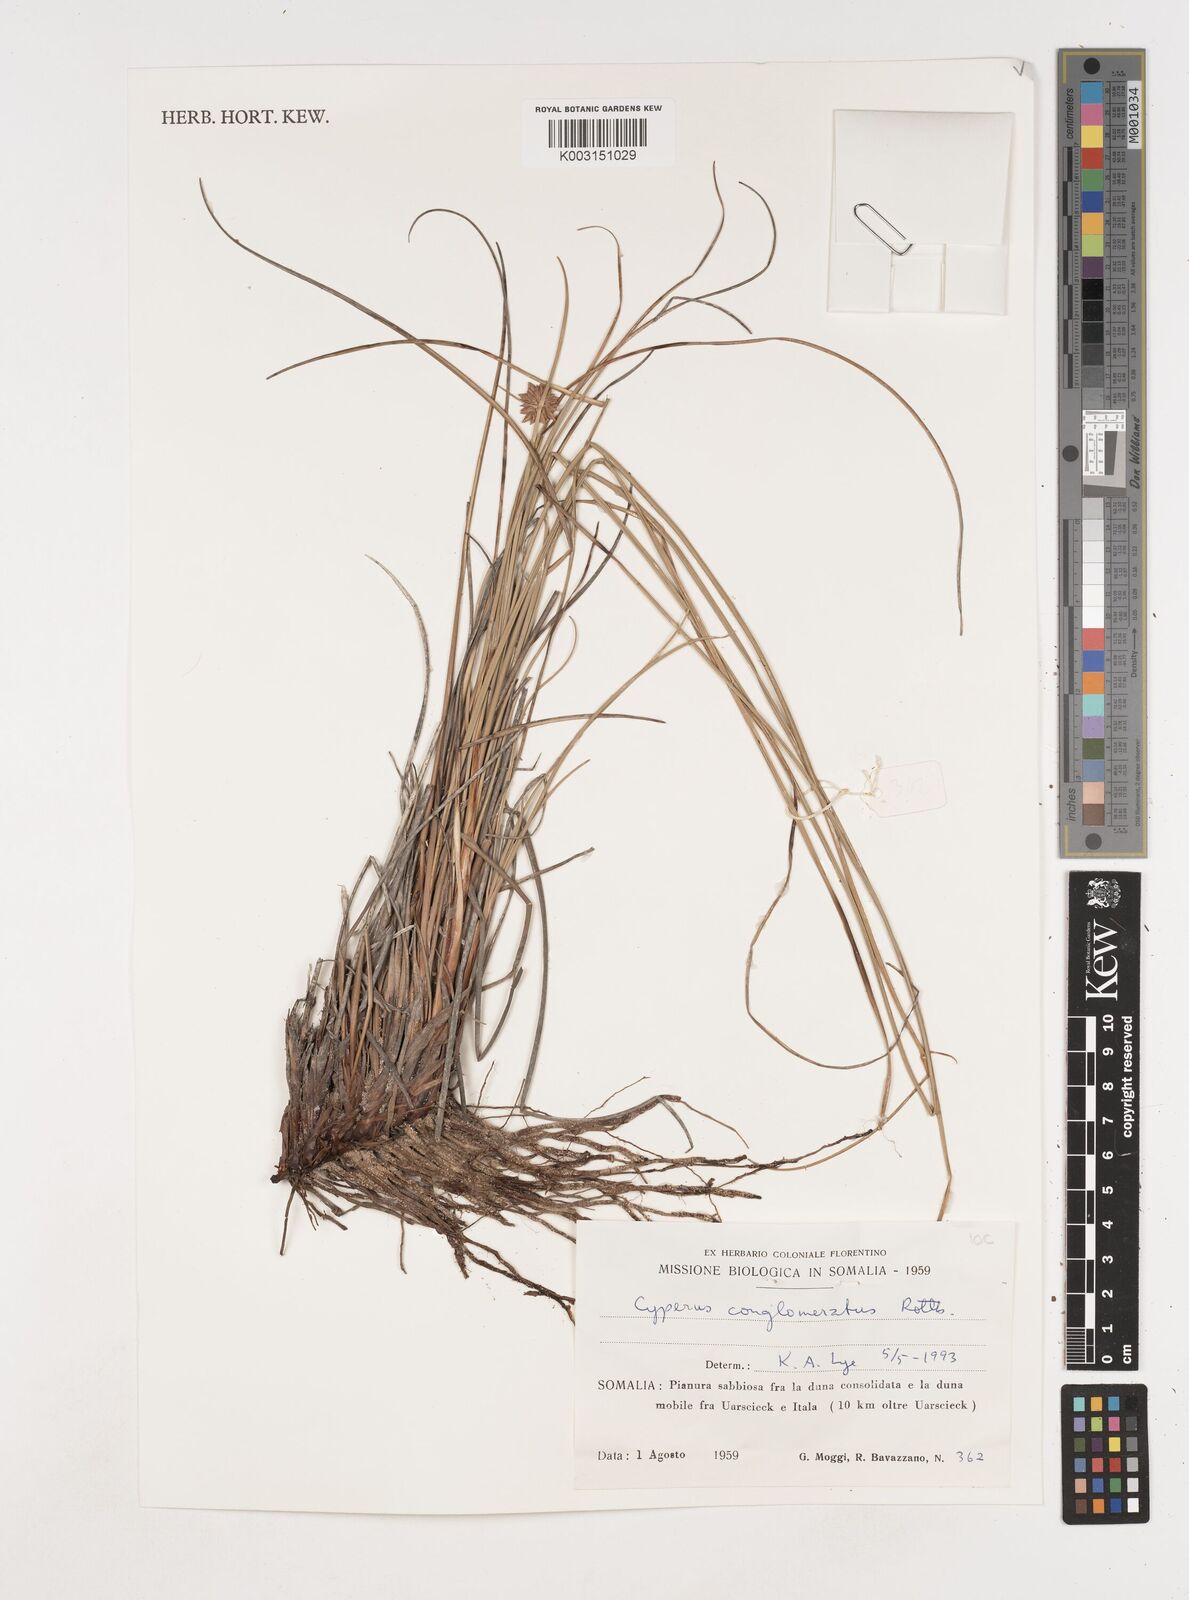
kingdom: Plantae
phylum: Tracheophyta
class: Liliopsida
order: Poales
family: Cyperaceae
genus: Cyperus
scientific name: Cyperus conglomeratus
